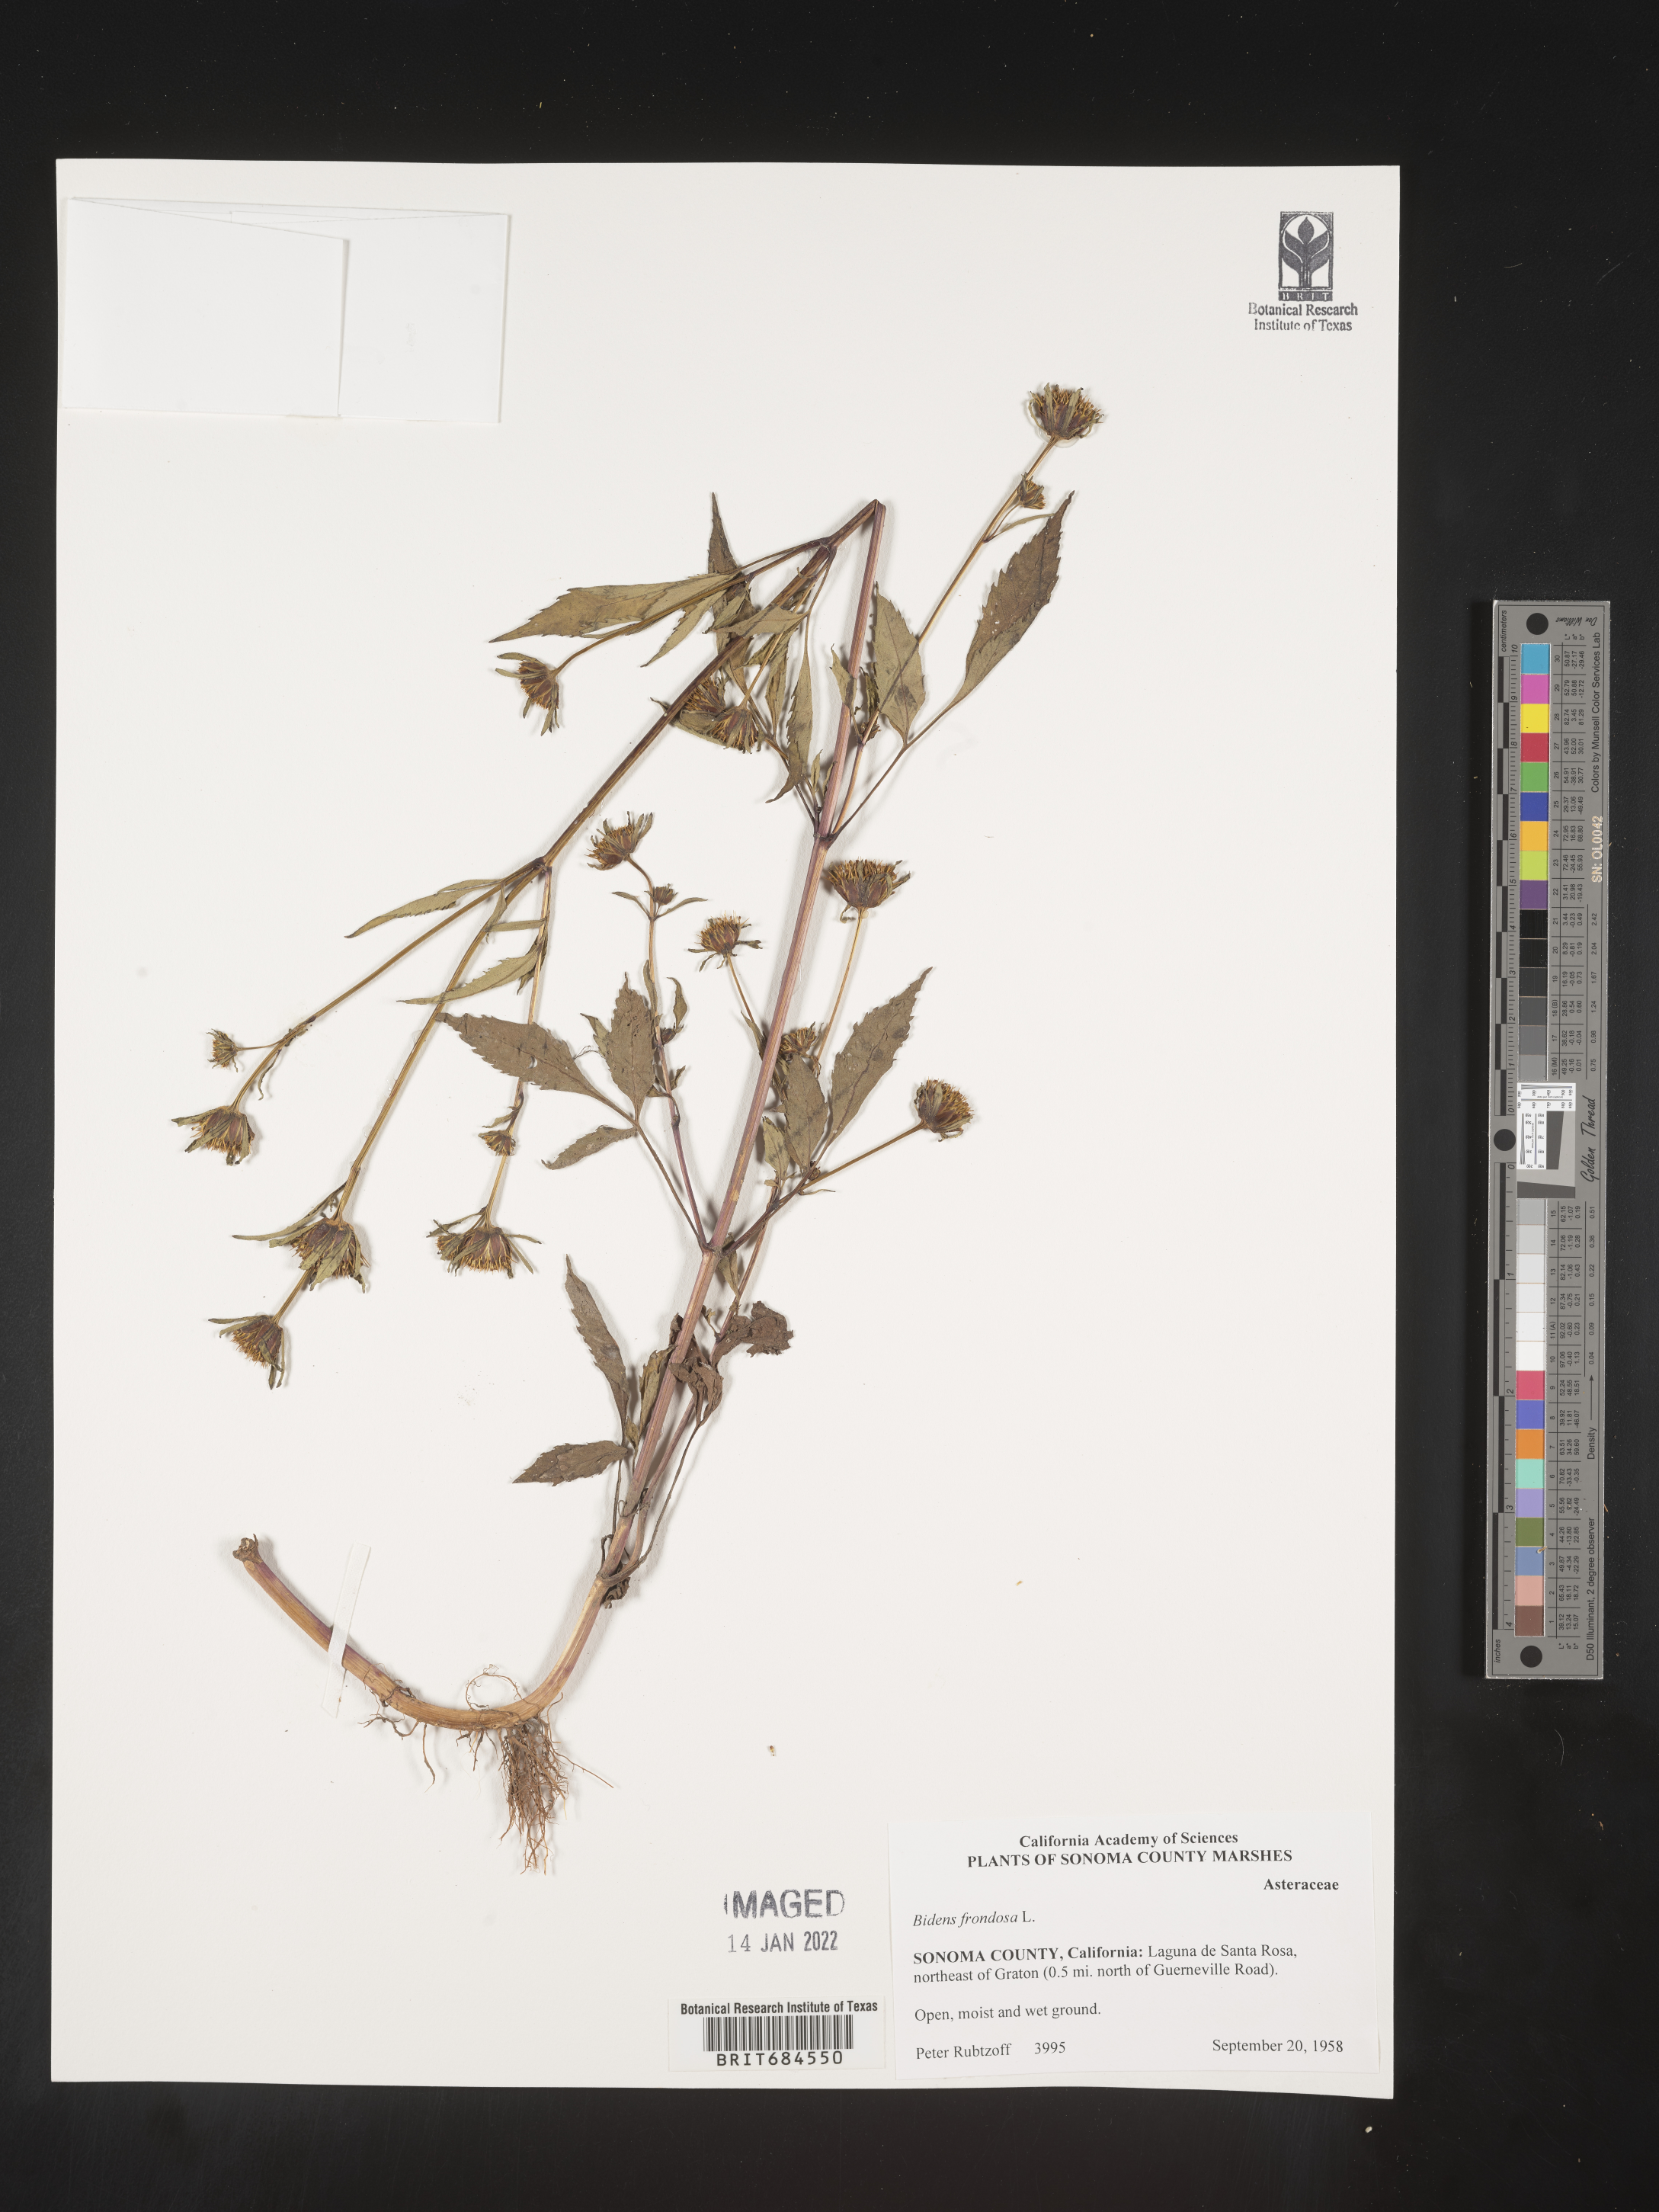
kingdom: Plantae
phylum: Tracheophyta
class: Magnoliopsida
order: Asterales
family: Asteraceae
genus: Bidens
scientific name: Bidens frondosa
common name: Beggarticks
